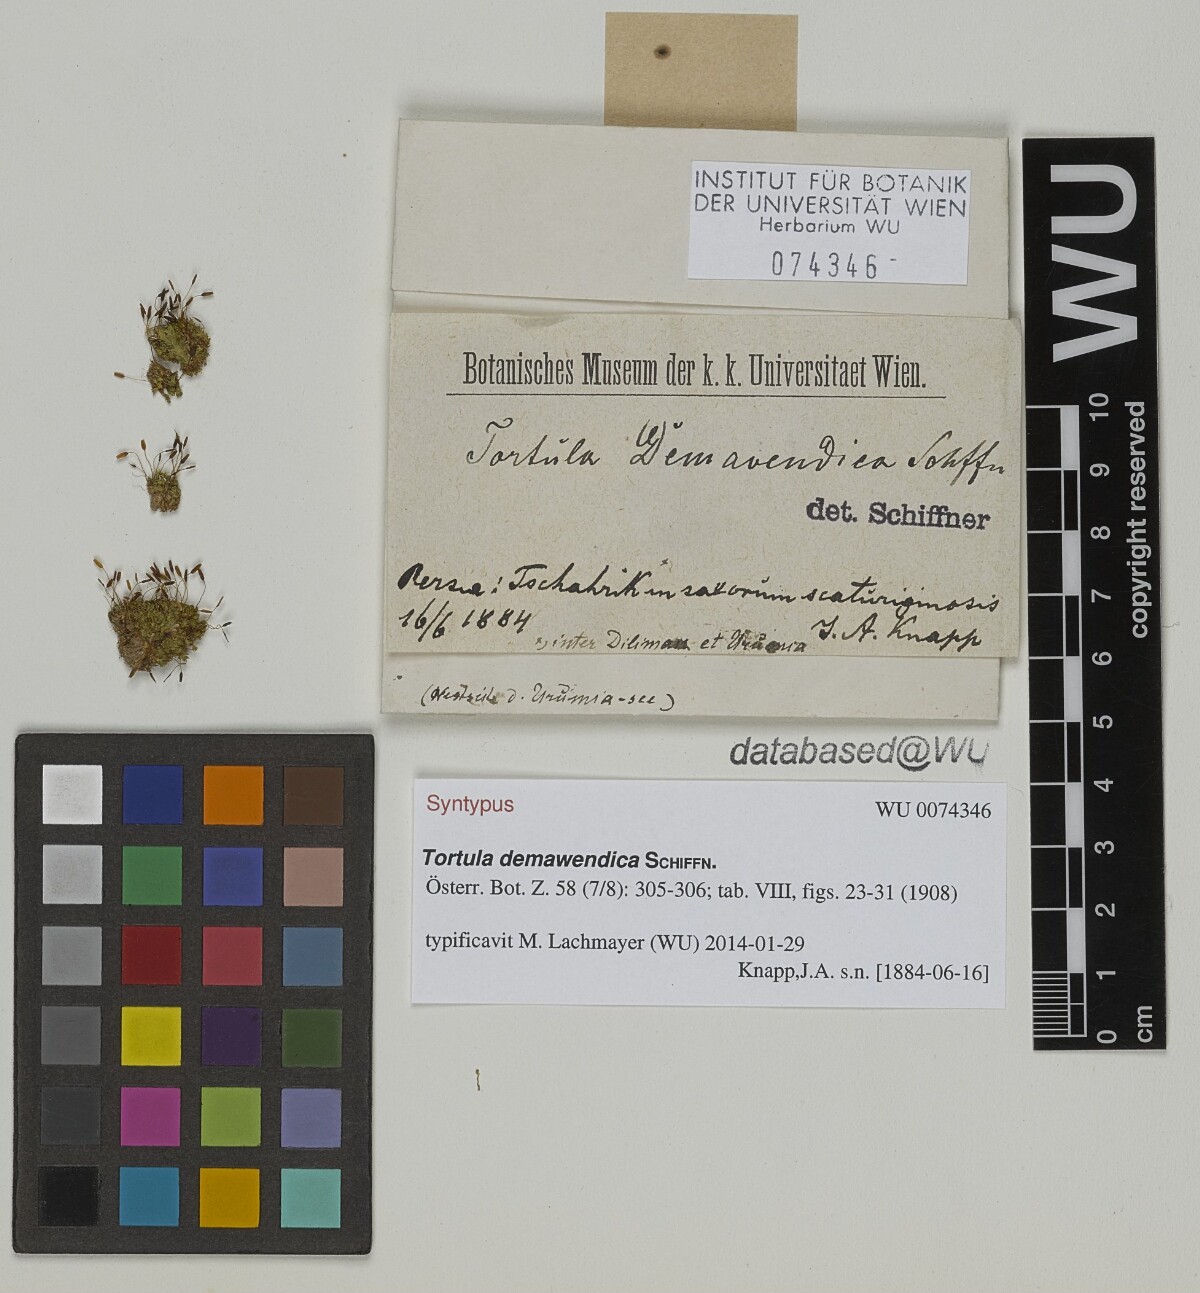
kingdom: Plantae
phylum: Bryophyta
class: Bryopsida
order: Pottiales
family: Pottiaceae
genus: Tortula
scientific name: Tortula demawendica
